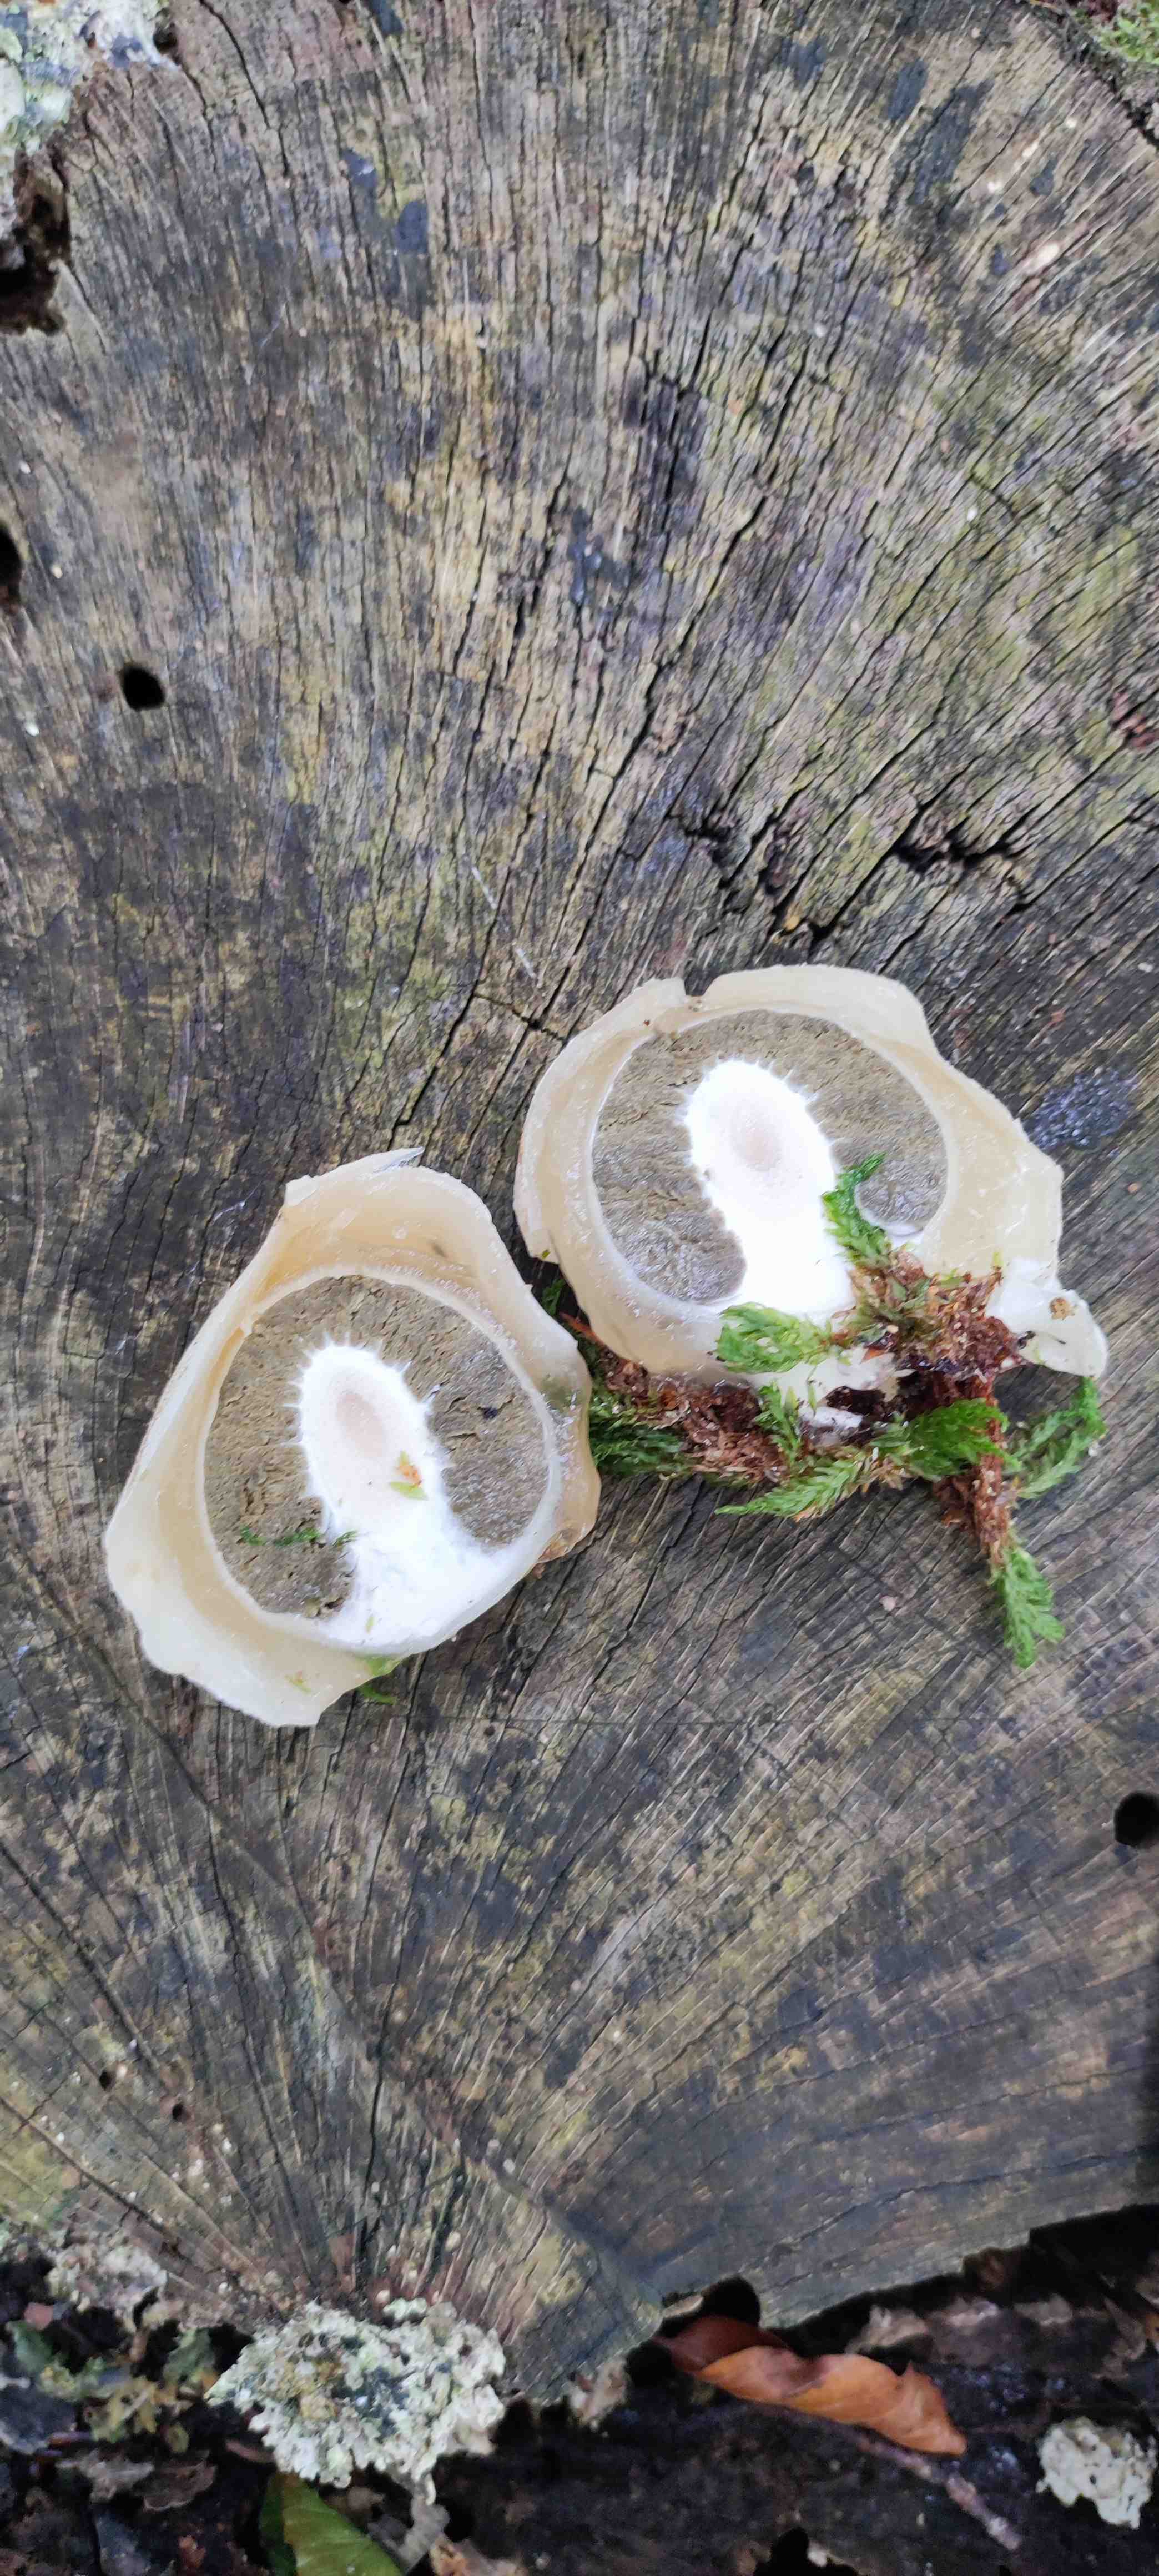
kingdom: Fungi
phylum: Basidiomycota
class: Agaricomycetes
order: Phallales
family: Phallaceae
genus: Phallus
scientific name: Phallus impudicus
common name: almindelig stinksvamp
